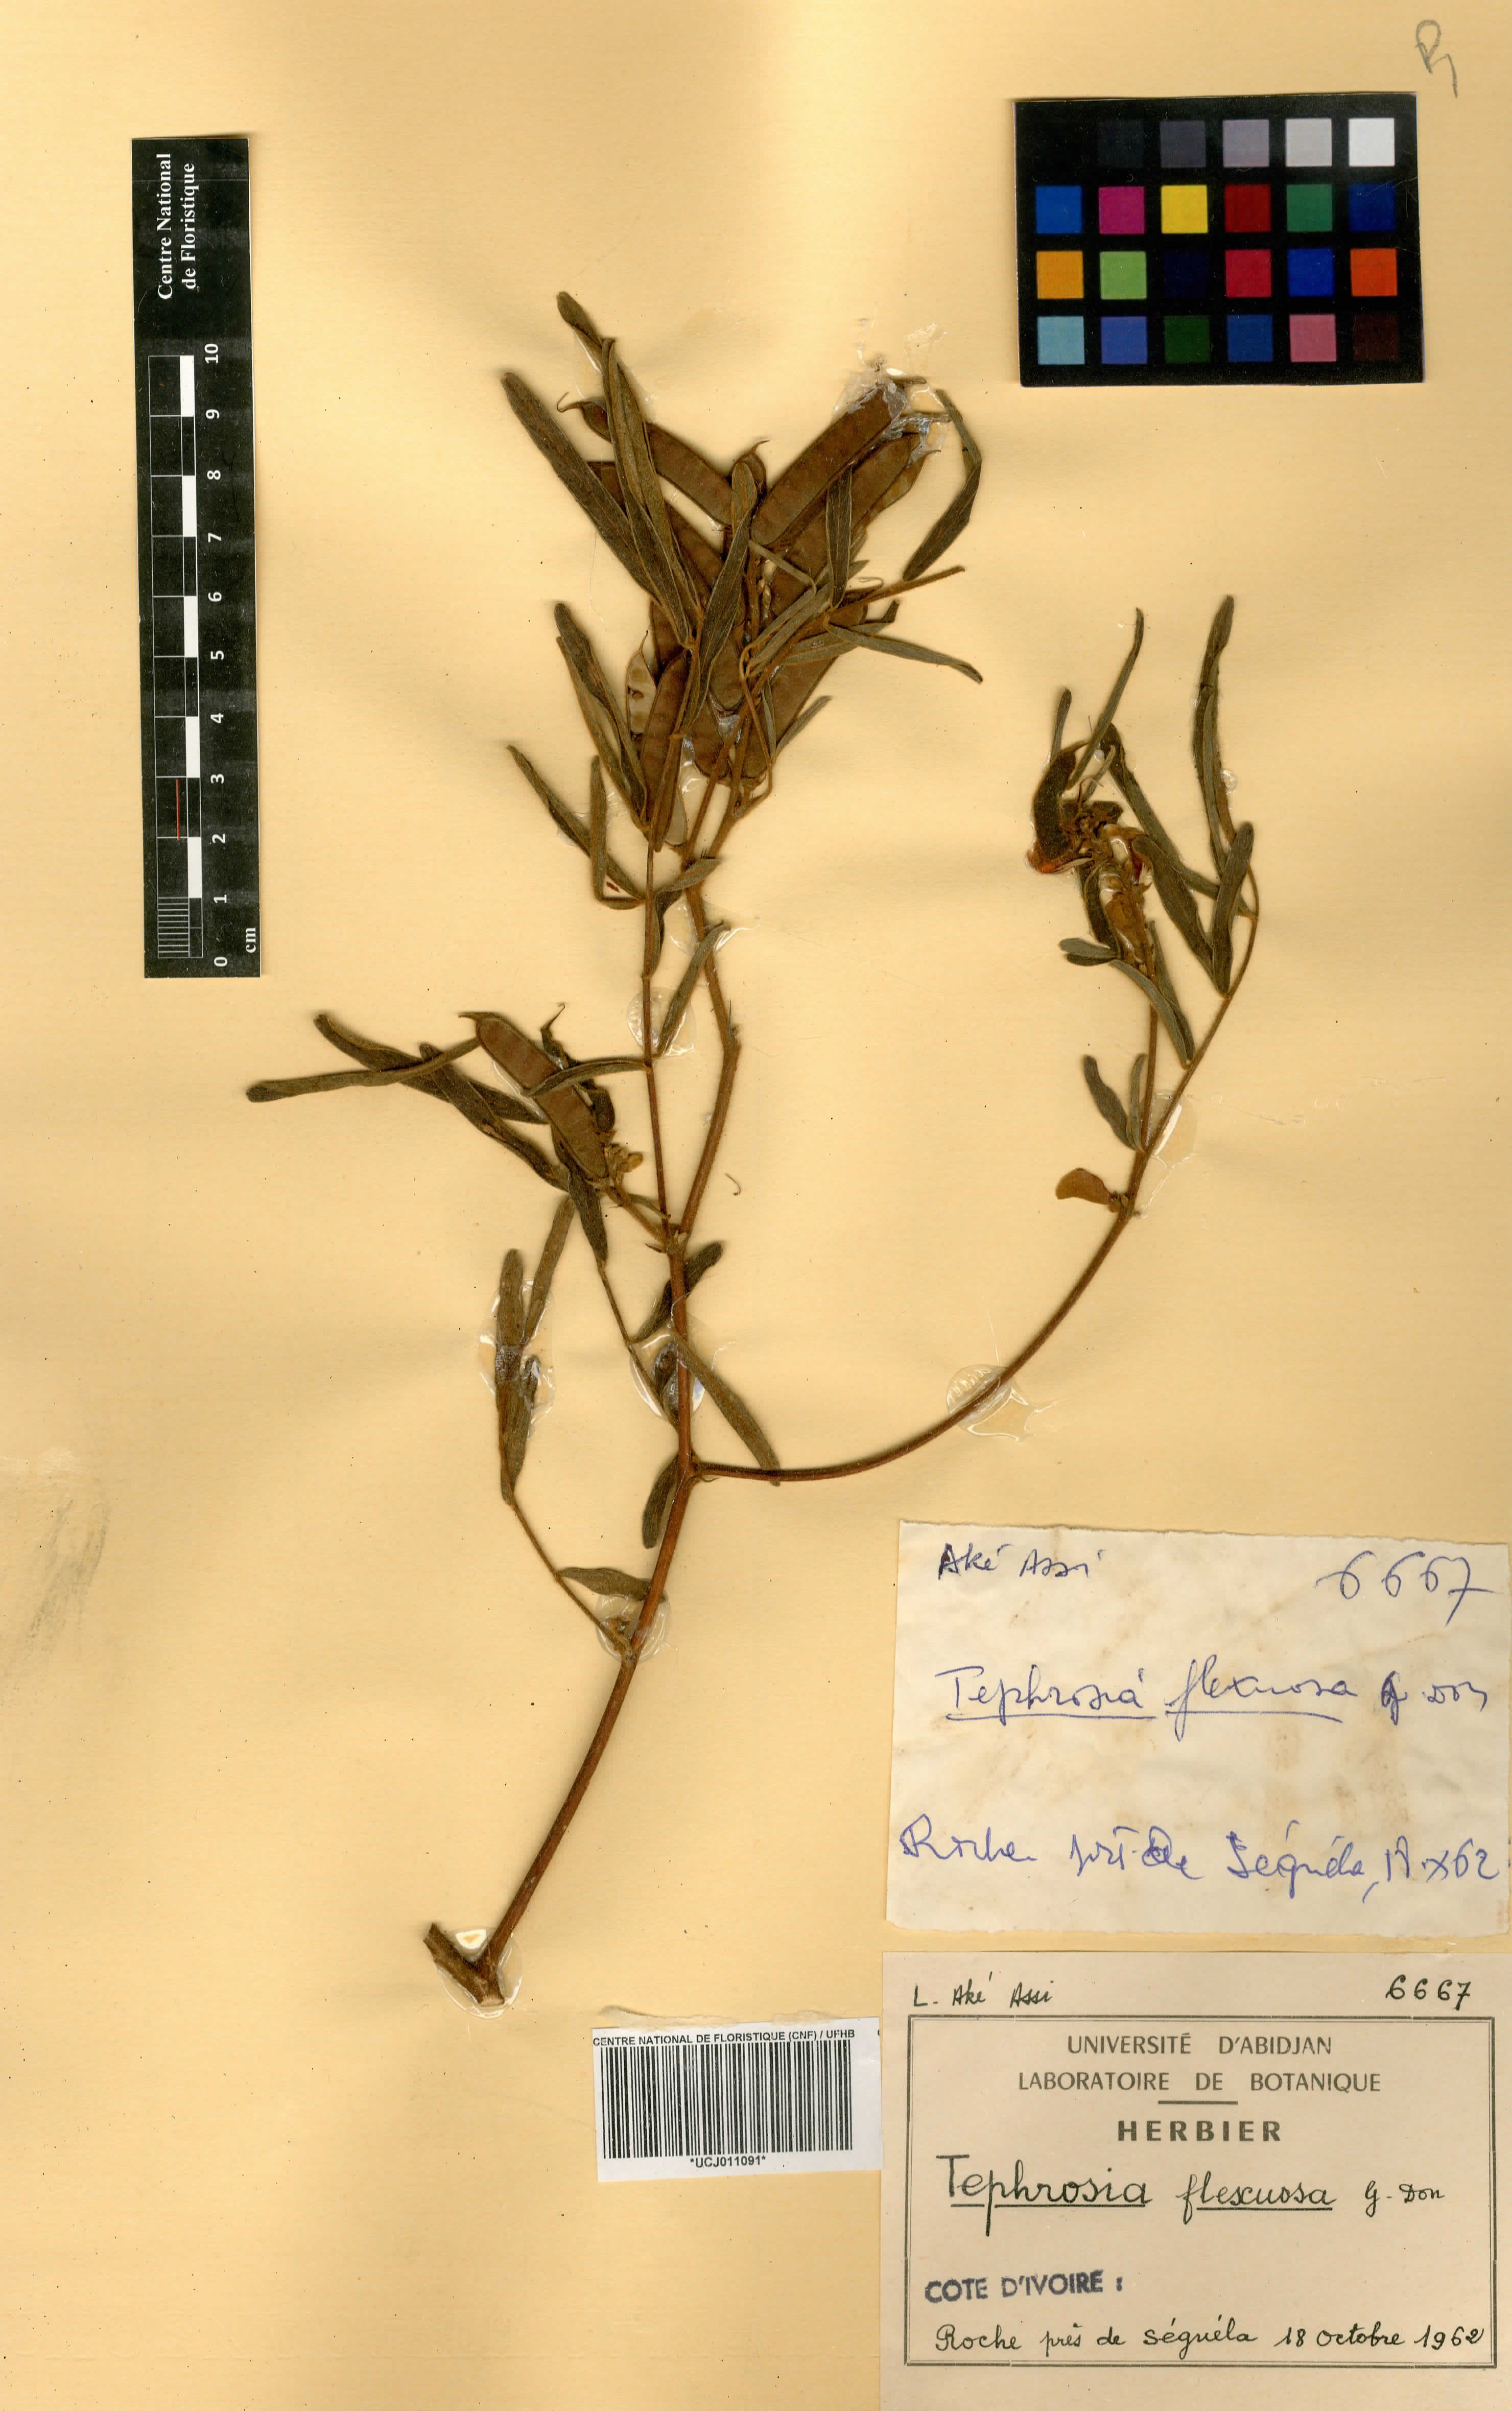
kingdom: Plantae
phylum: Tracheophyta
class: Magnoliopsida
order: Fabales
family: Fabaceae
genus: Tephrosia
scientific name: Tephrosia flexuosa
